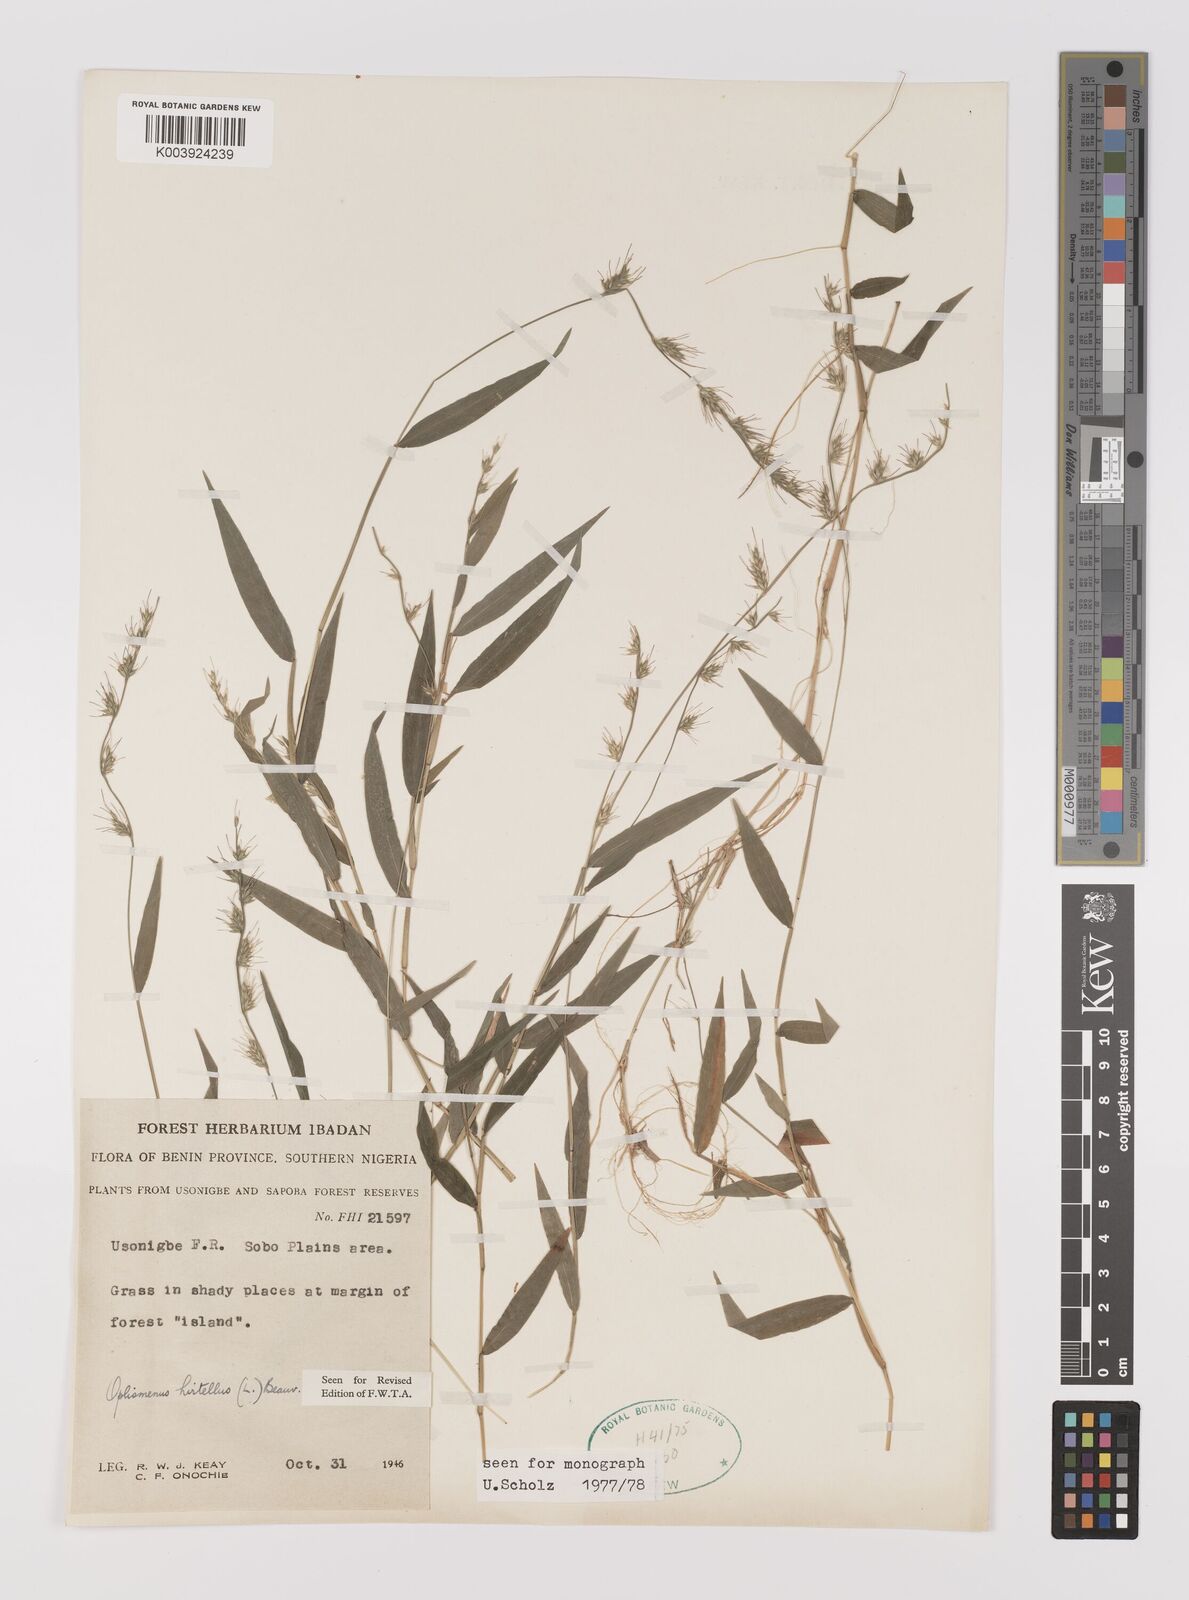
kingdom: Plantae
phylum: Tracheophyta
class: Liliopsida
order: Poales
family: Poaceae
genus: Oplismenus
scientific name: Oplismenus hirtellus
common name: Basketgrass
